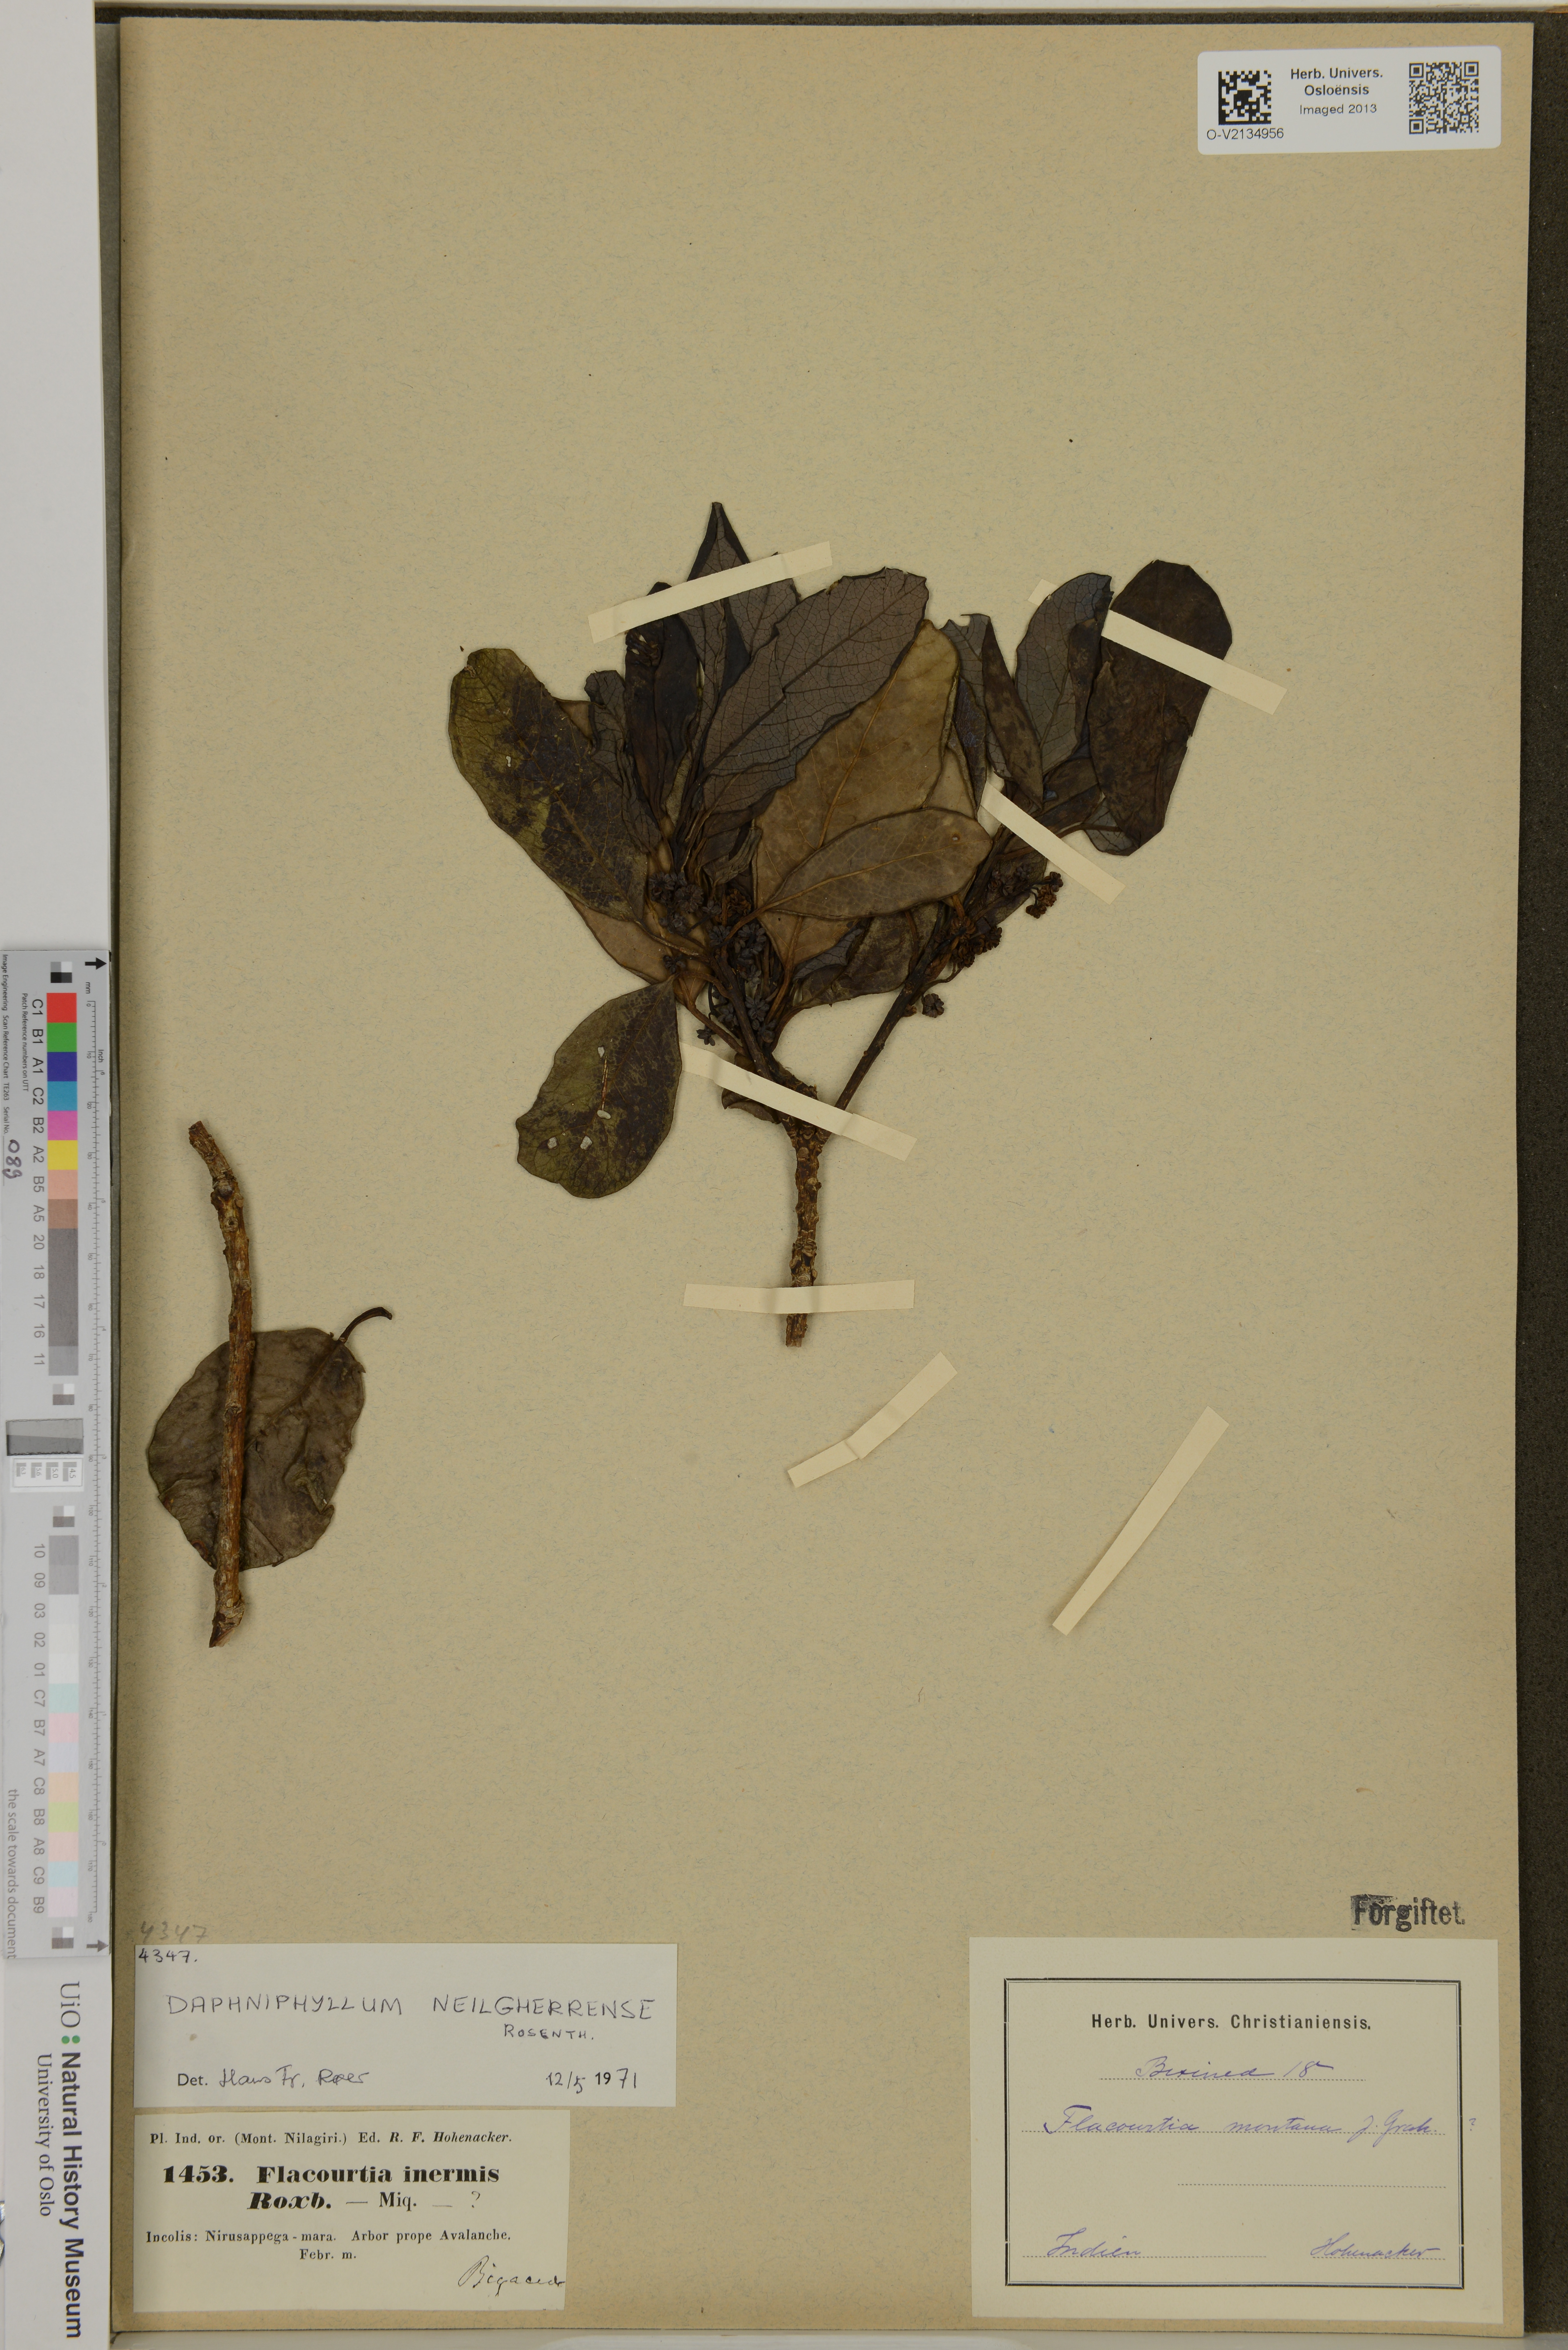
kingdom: Plantae
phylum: Tracheophyta
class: Magnoliopsida
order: Saxifragales
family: Daphniphyllaceae
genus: Daphniphyllum
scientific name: Daphniphyllum neilgherrense
